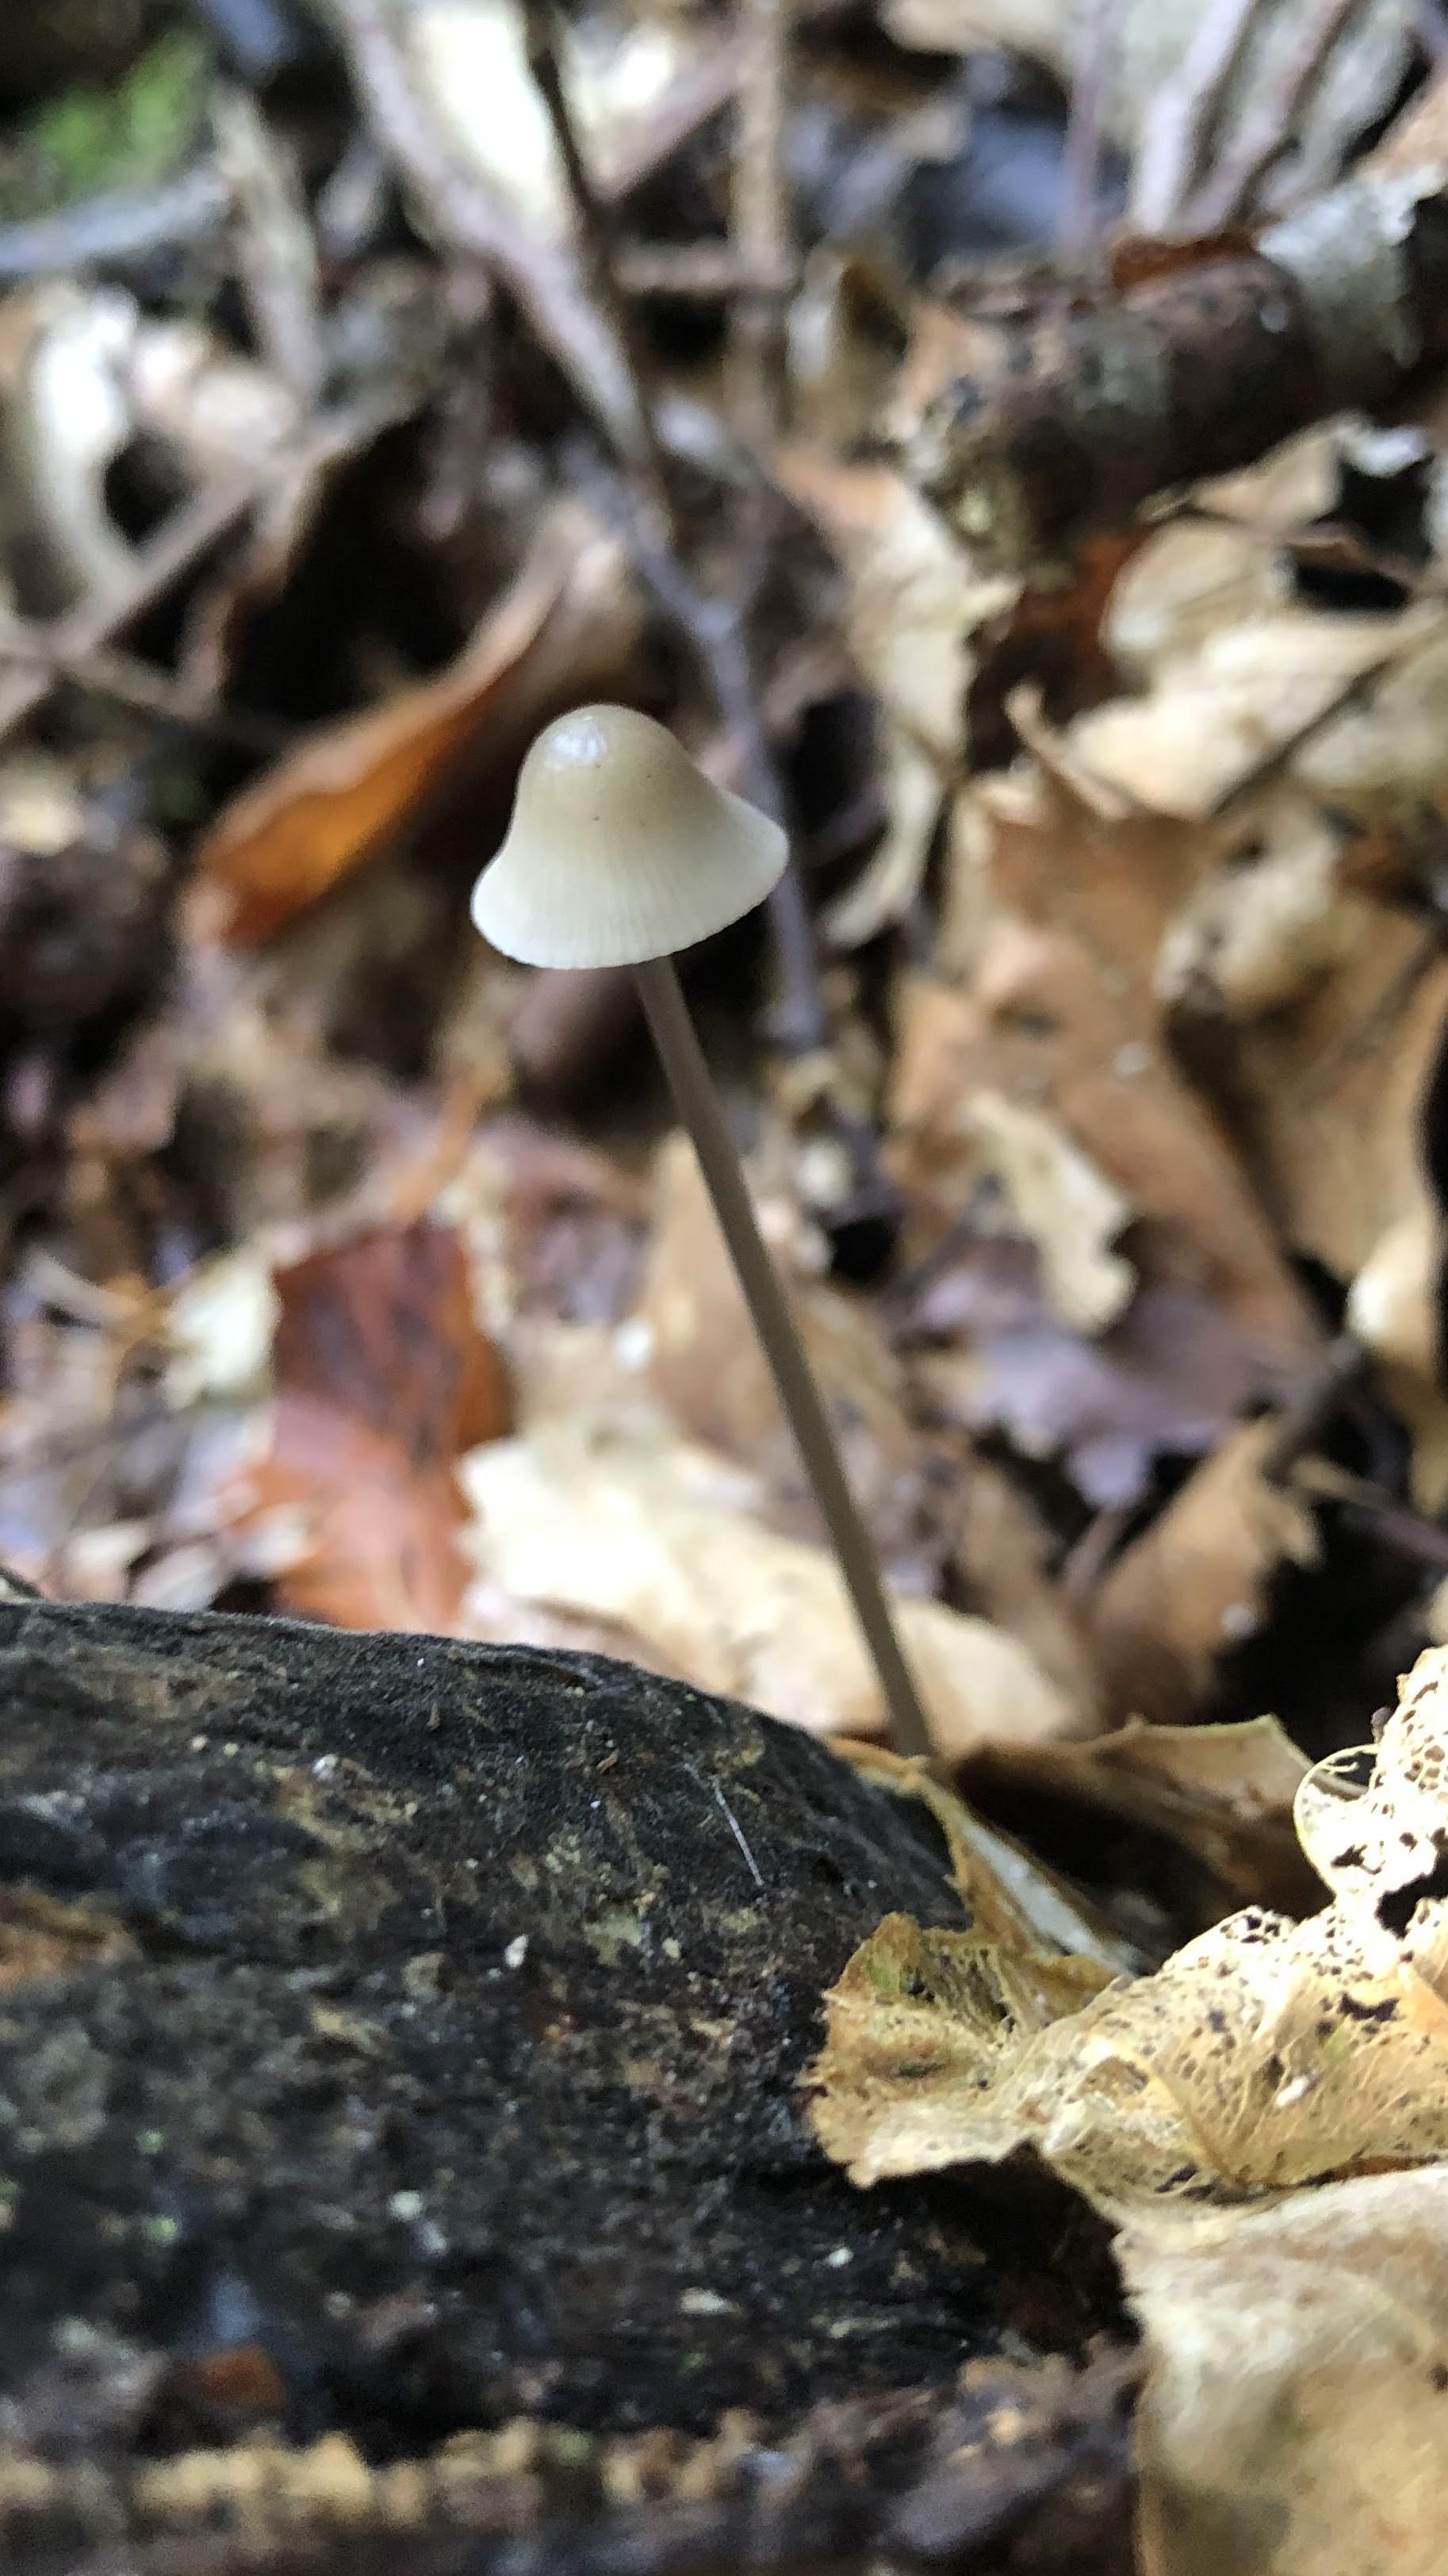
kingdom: Fungi
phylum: Basidiomycota
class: Agaricomycetes
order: Agaricales
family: Mycenaceae
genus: Mycena
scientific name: Mycena vitilis
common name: blankstokket huesvamp
